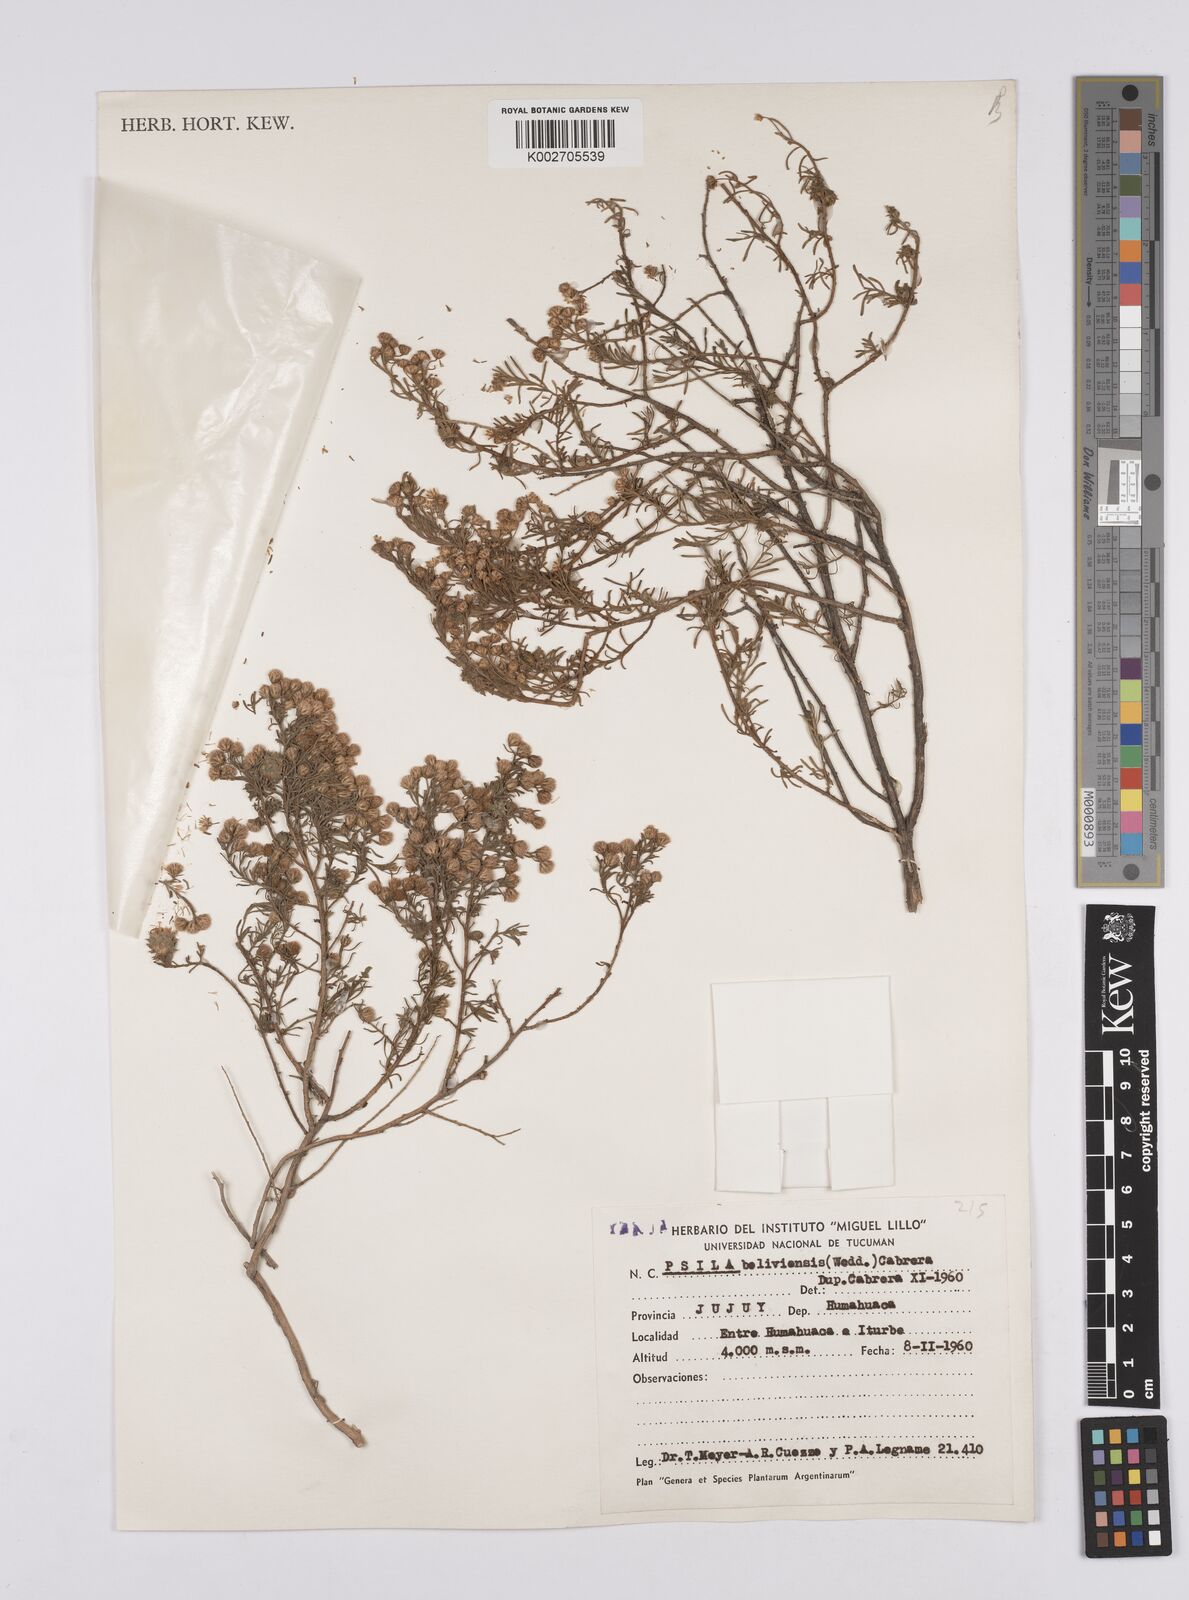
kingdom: Plantae
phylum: Tracheophyta
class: Magnoliopsida
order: Asterales
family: Asteraceae
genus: Baccharis
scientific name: Baccharis bolivensis
